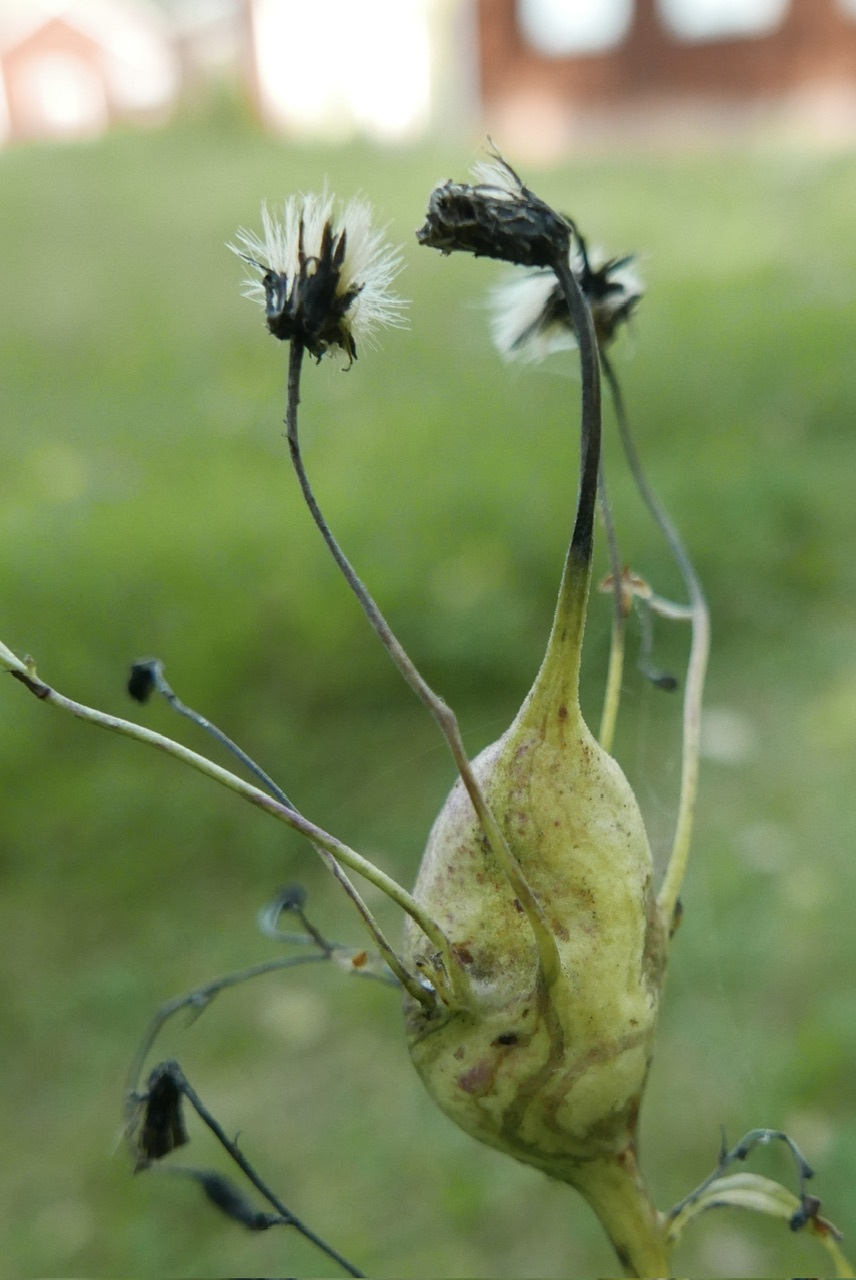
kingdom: Animalia
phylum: Arthropoda
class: Insecta
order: Hymenoptera
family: Cynipidae
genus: Aulacidea
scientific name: Aulacidea hieracii
